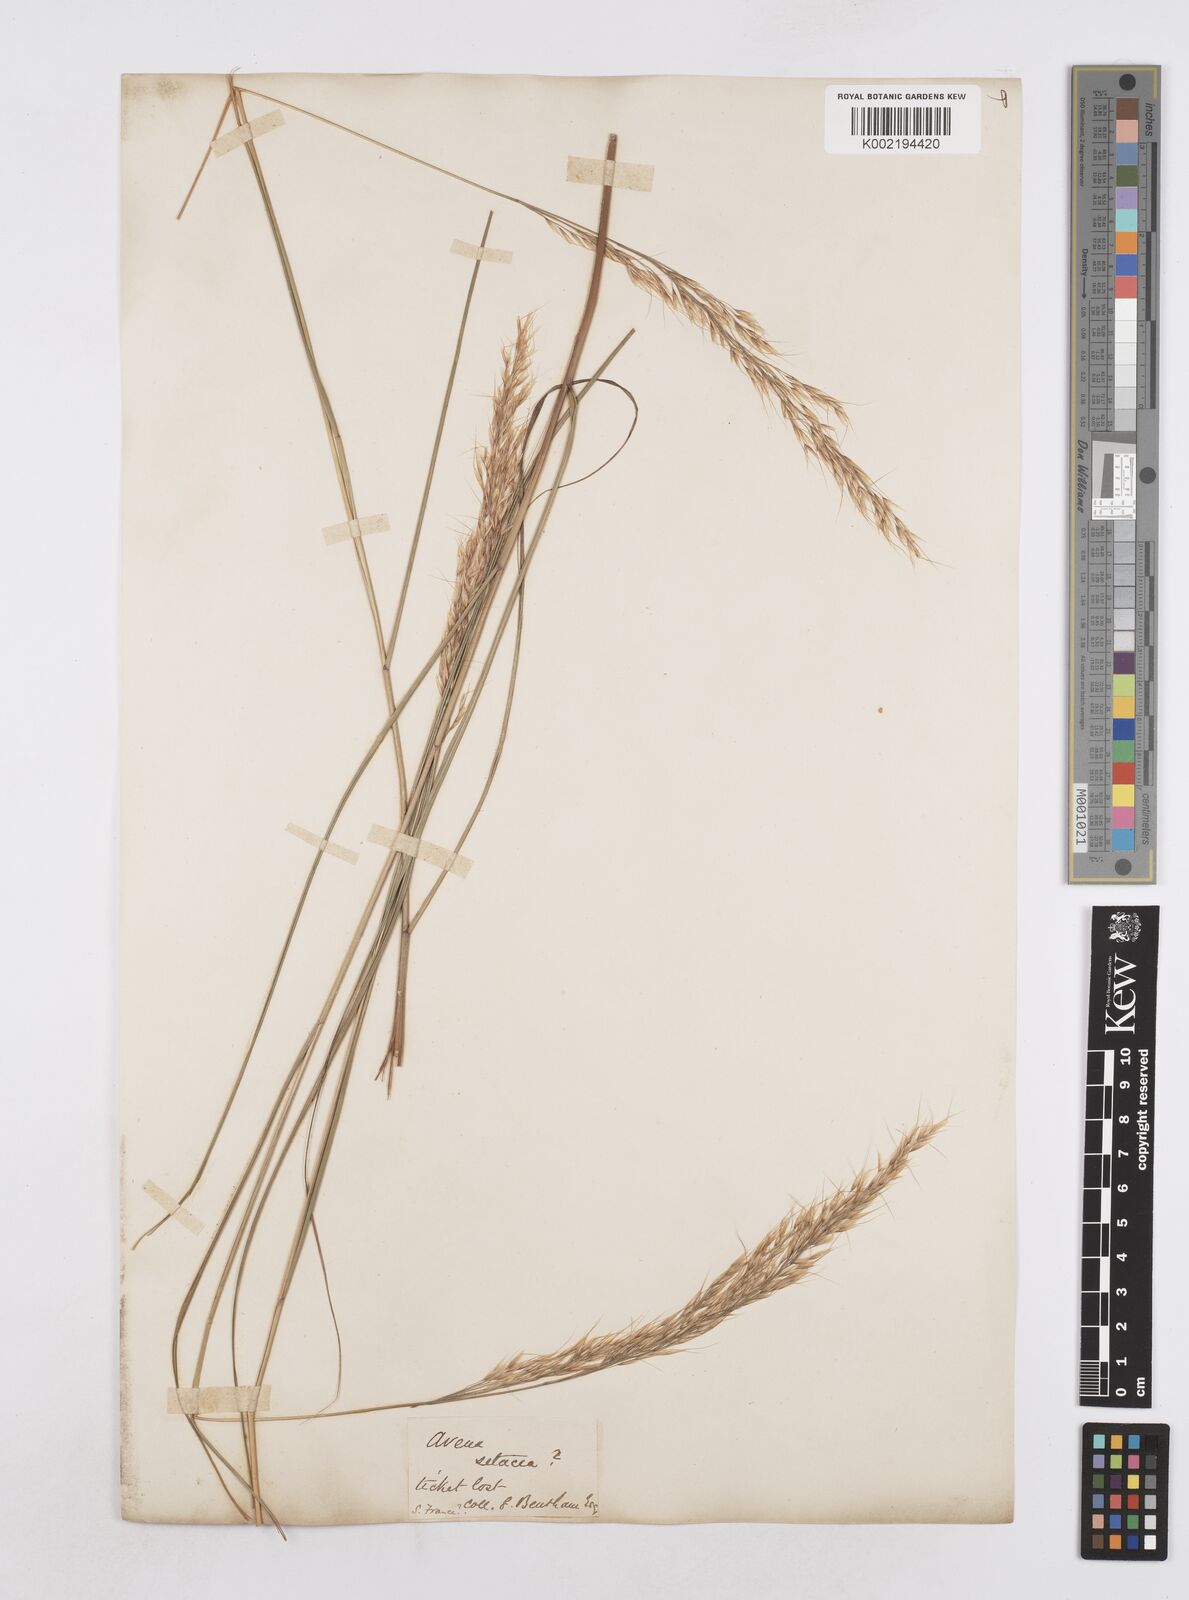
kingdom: Plantae
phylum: Tracheophyta
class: Liliopsida
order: Poales
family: Poaceae
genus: Helictotrichon
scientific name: Helictotrichon sempervirens
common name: Blue oat-grass
